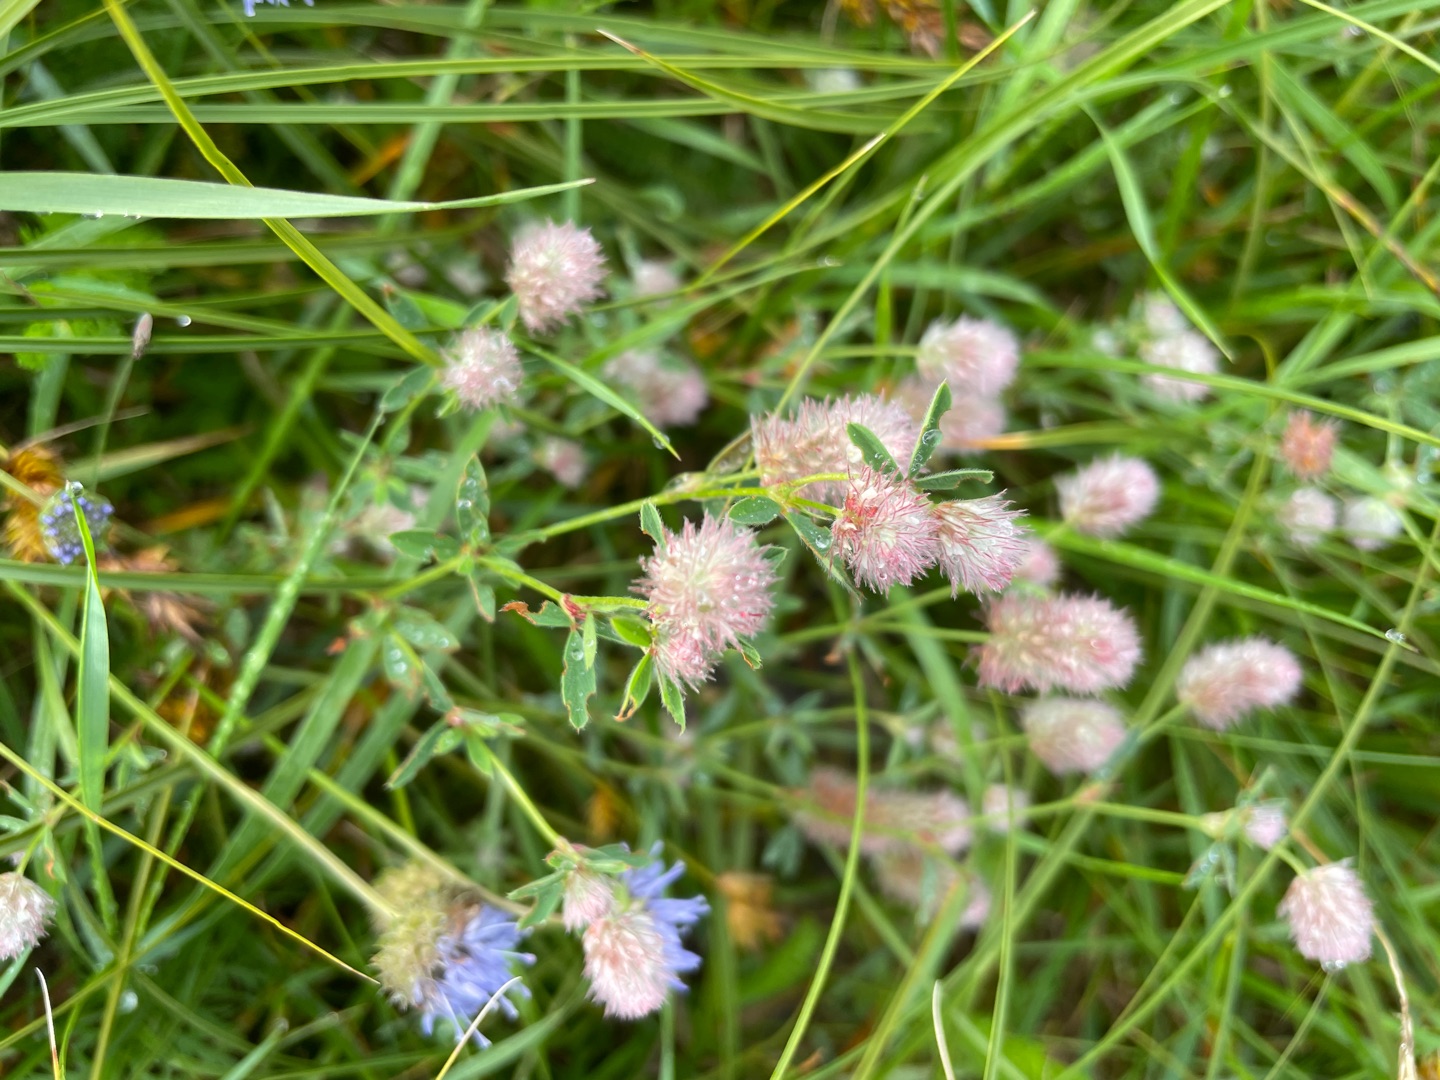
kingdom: Plantae
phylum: Tracheophyta
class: Magnoliopsida
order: Fabales
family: Fabaceae
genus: Trifolium
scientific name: Trifolium arvense
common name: Hare-kløver
